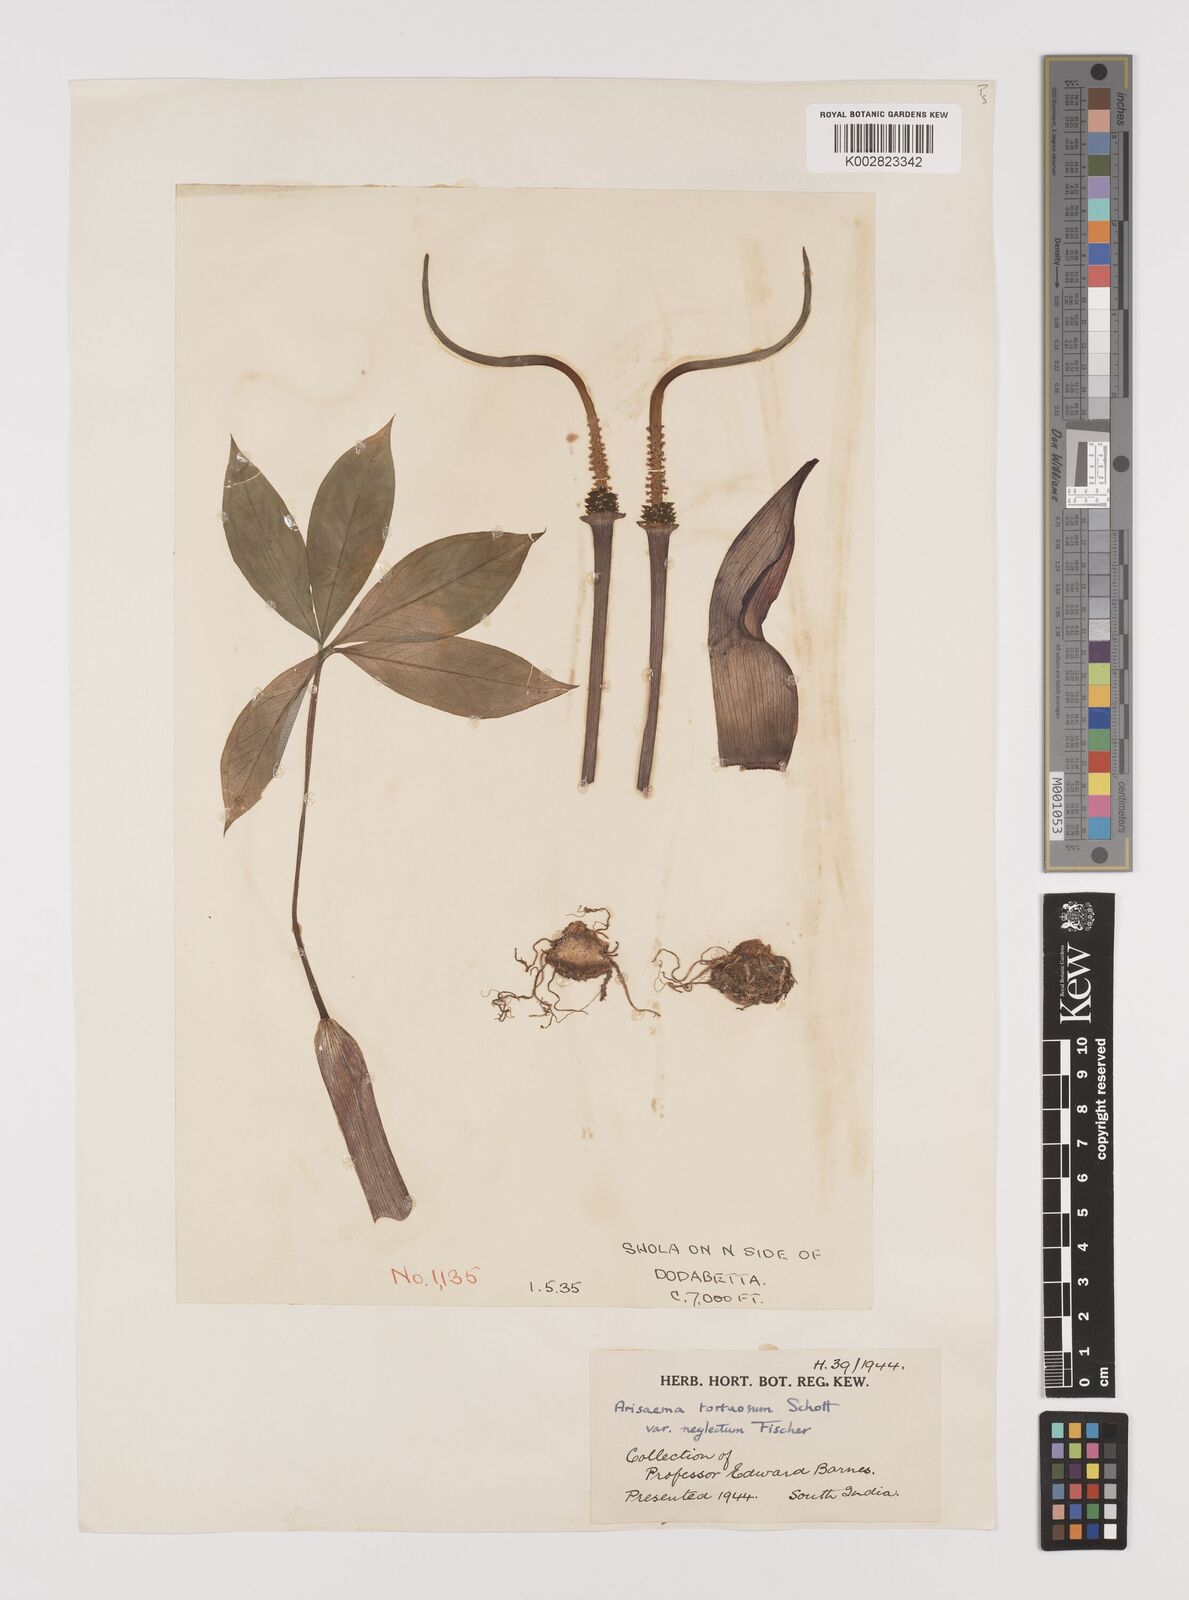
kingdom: Plantae
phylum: Tracheophyta
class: Liliopsida
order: Alismatales
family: Araceae
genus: Arisaema
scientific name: Arisaema tortuosum
